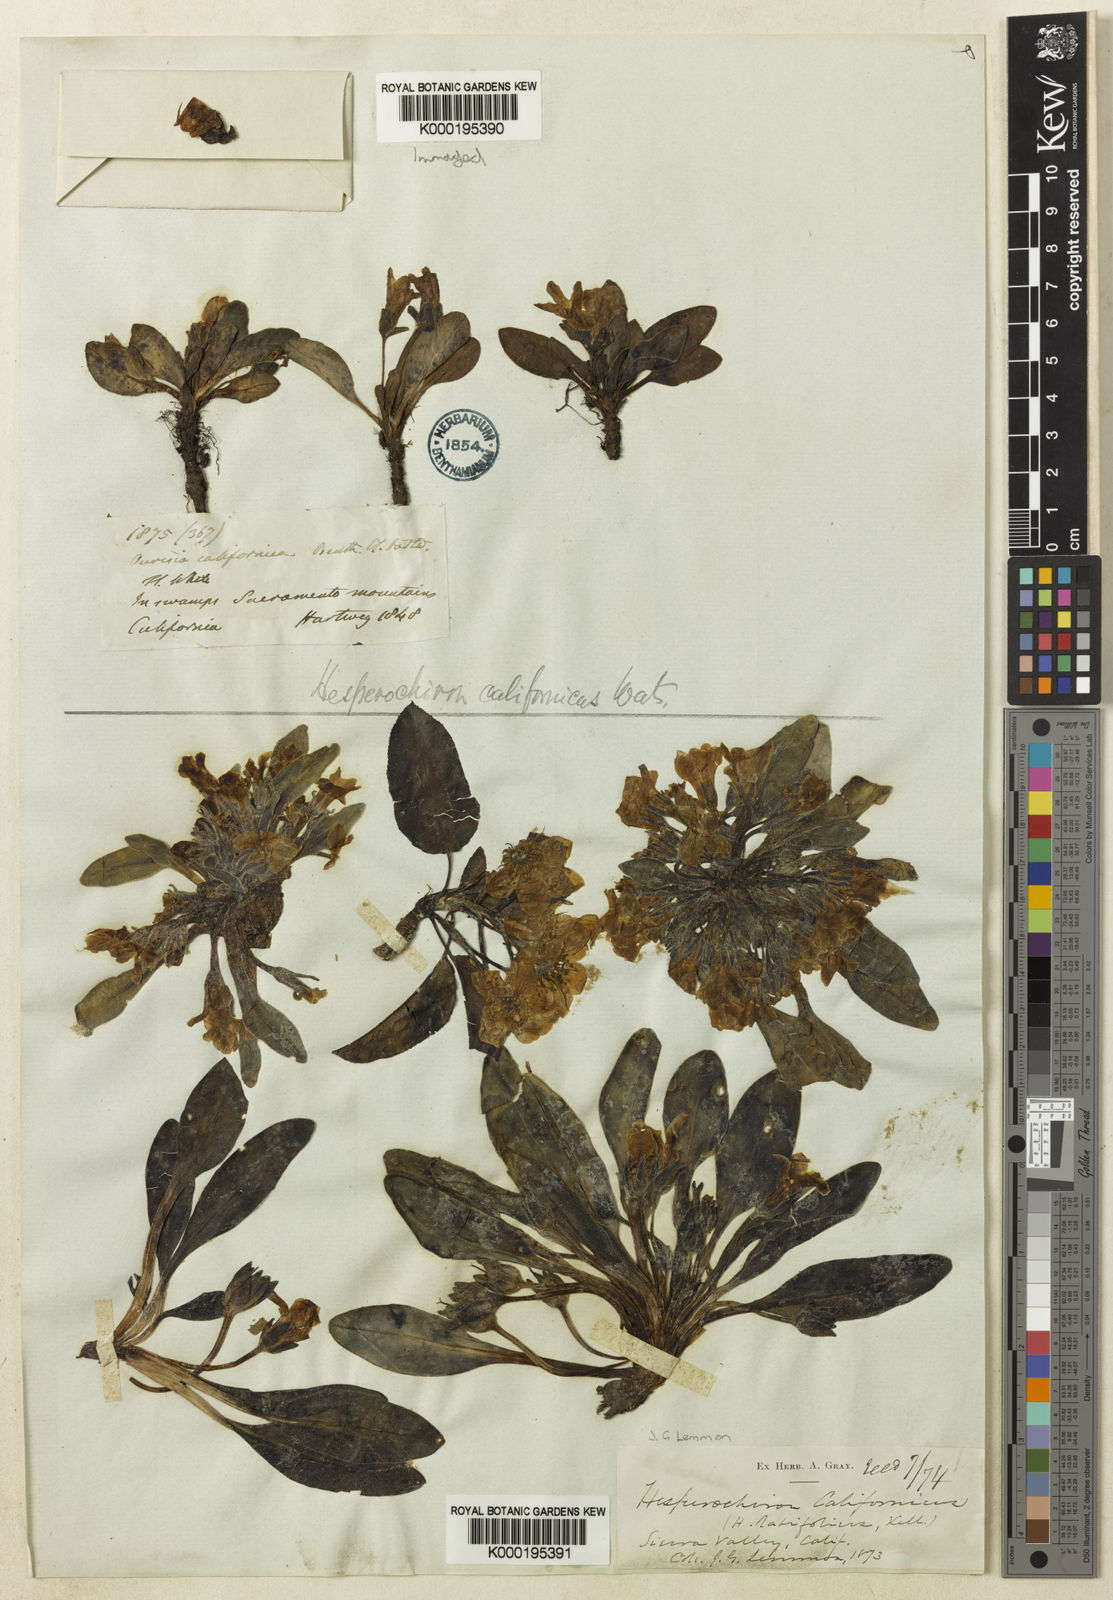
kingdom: Plantae
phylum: Tracheophyta
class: Magnoliopsida
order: Boraginales
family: Hydrophyllaceae
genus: Hesperochiron
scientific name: Hesperochiron californicus
